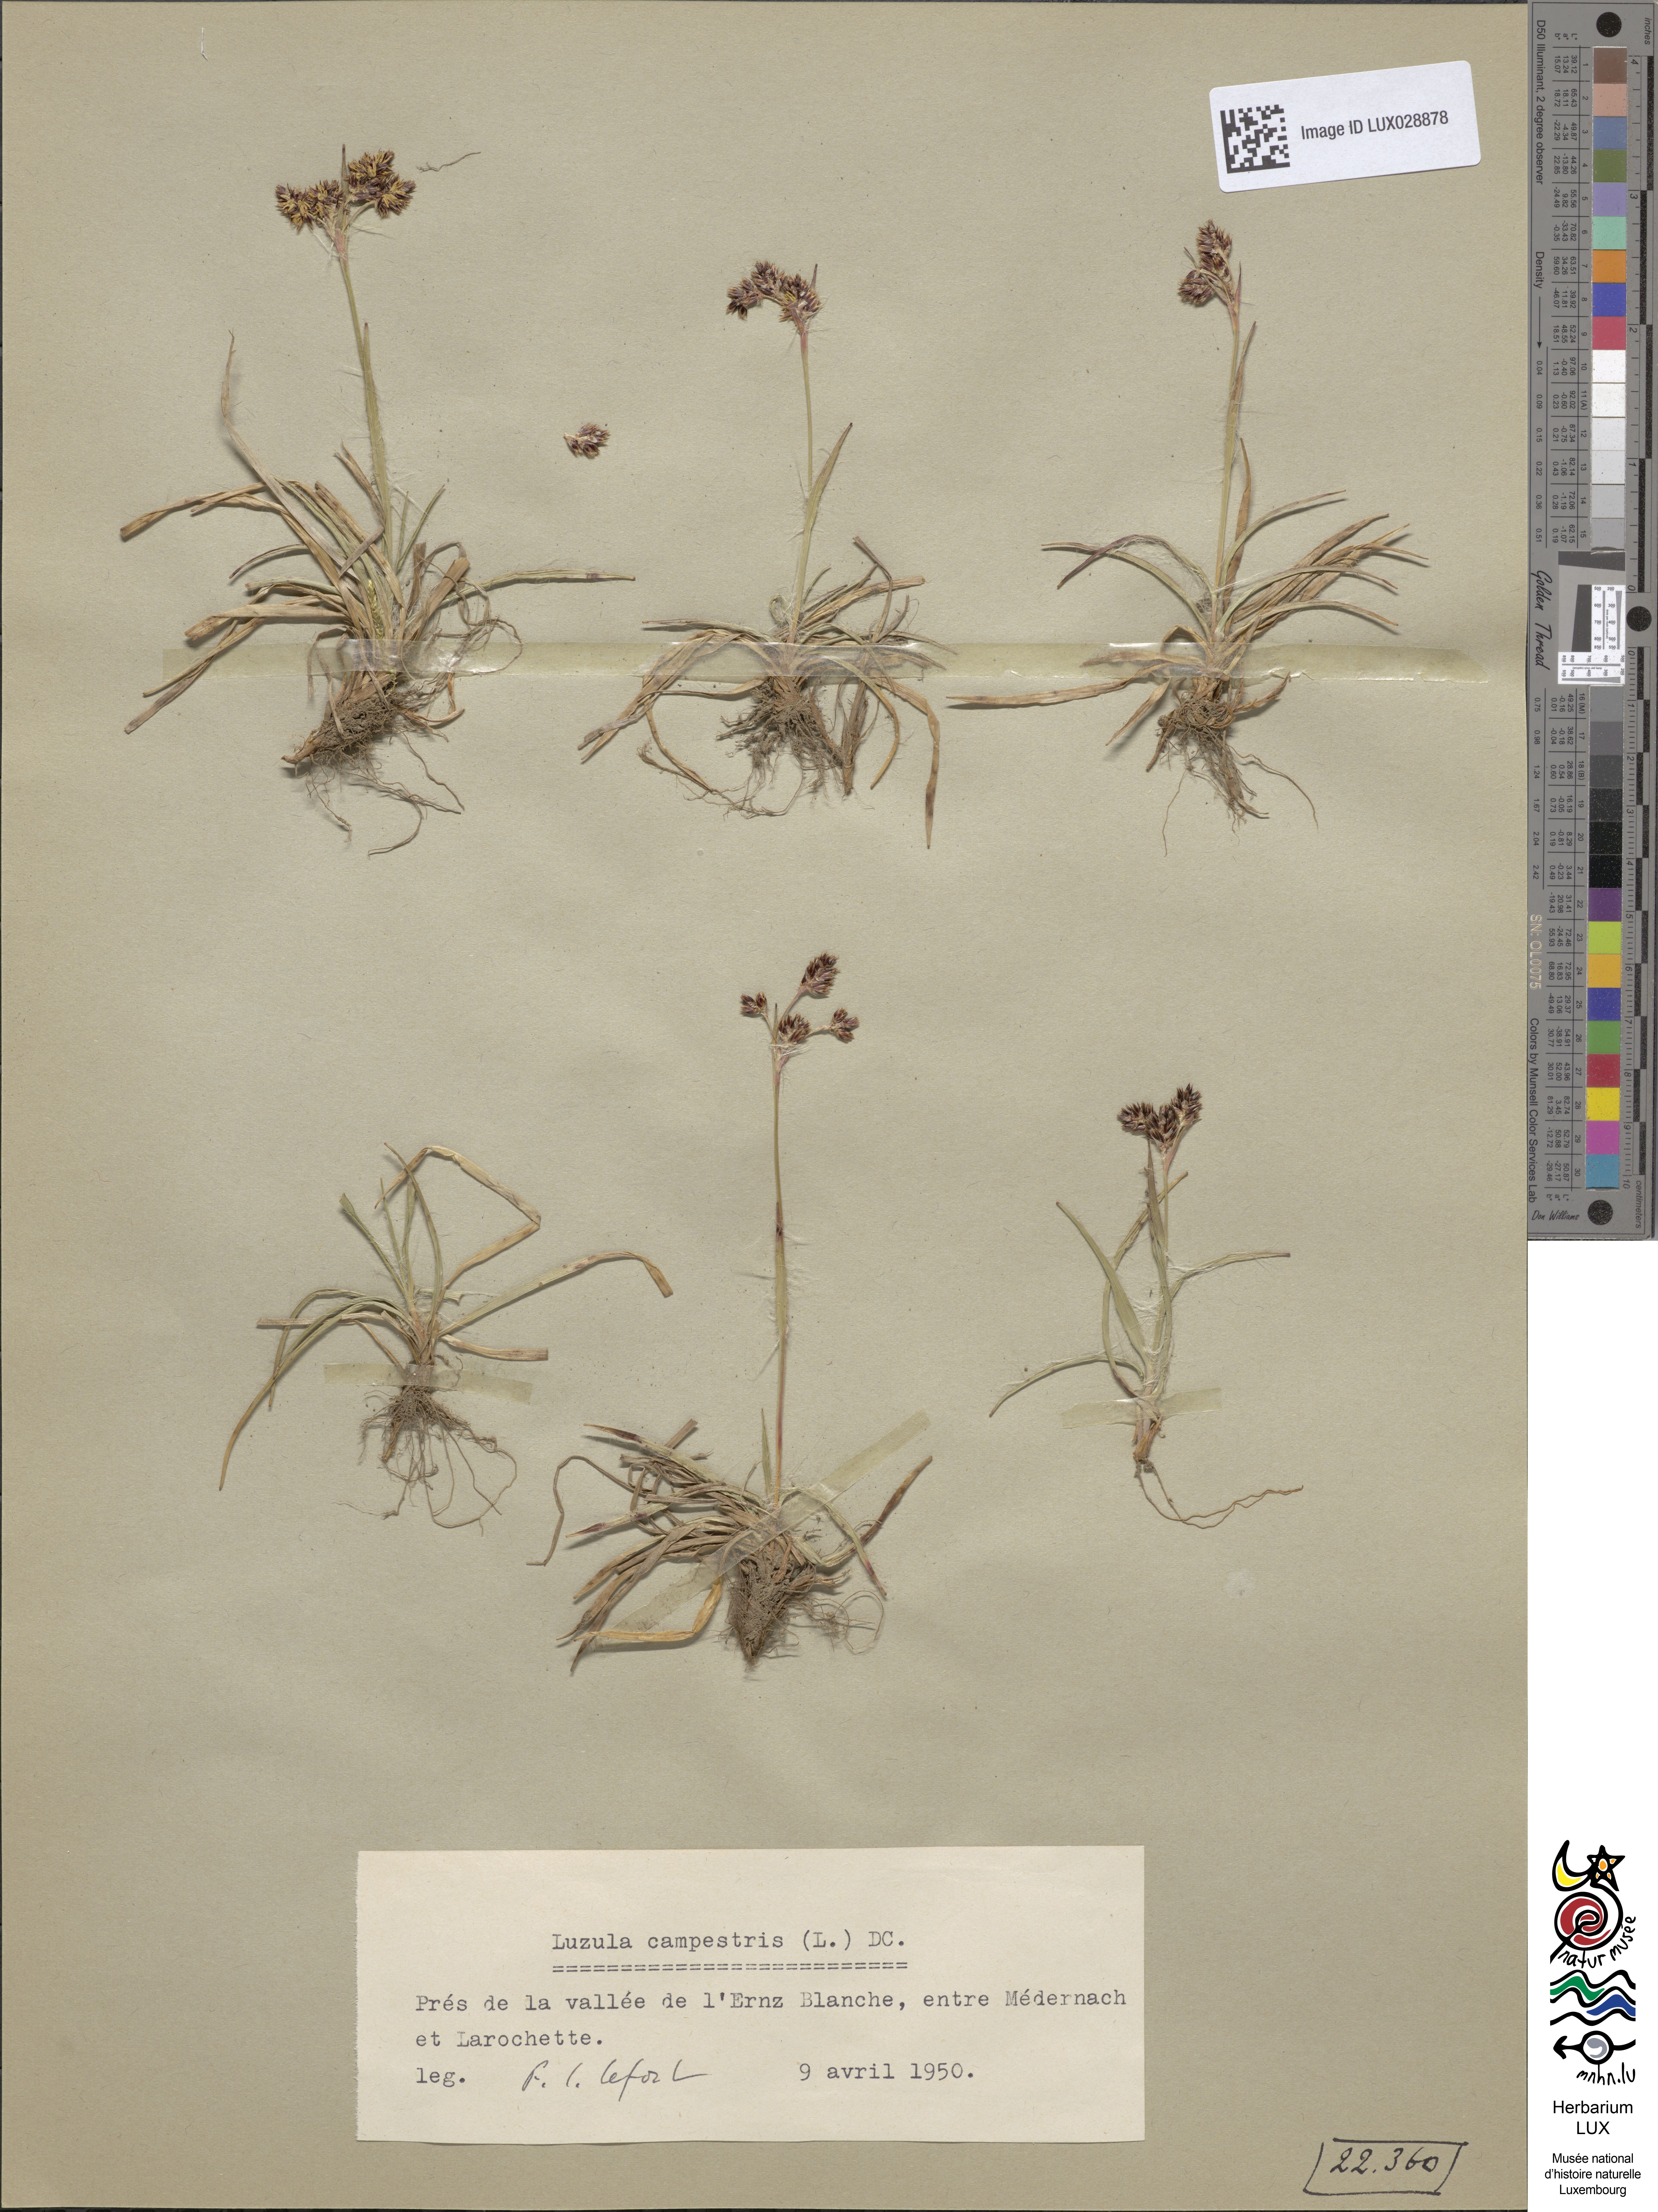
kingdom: Plantae
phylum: Tracheophyta
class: Liliopsida
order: Poales
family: Juncaceae
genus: Luzula
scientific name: Luzula campestris
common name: Field wood-rush
